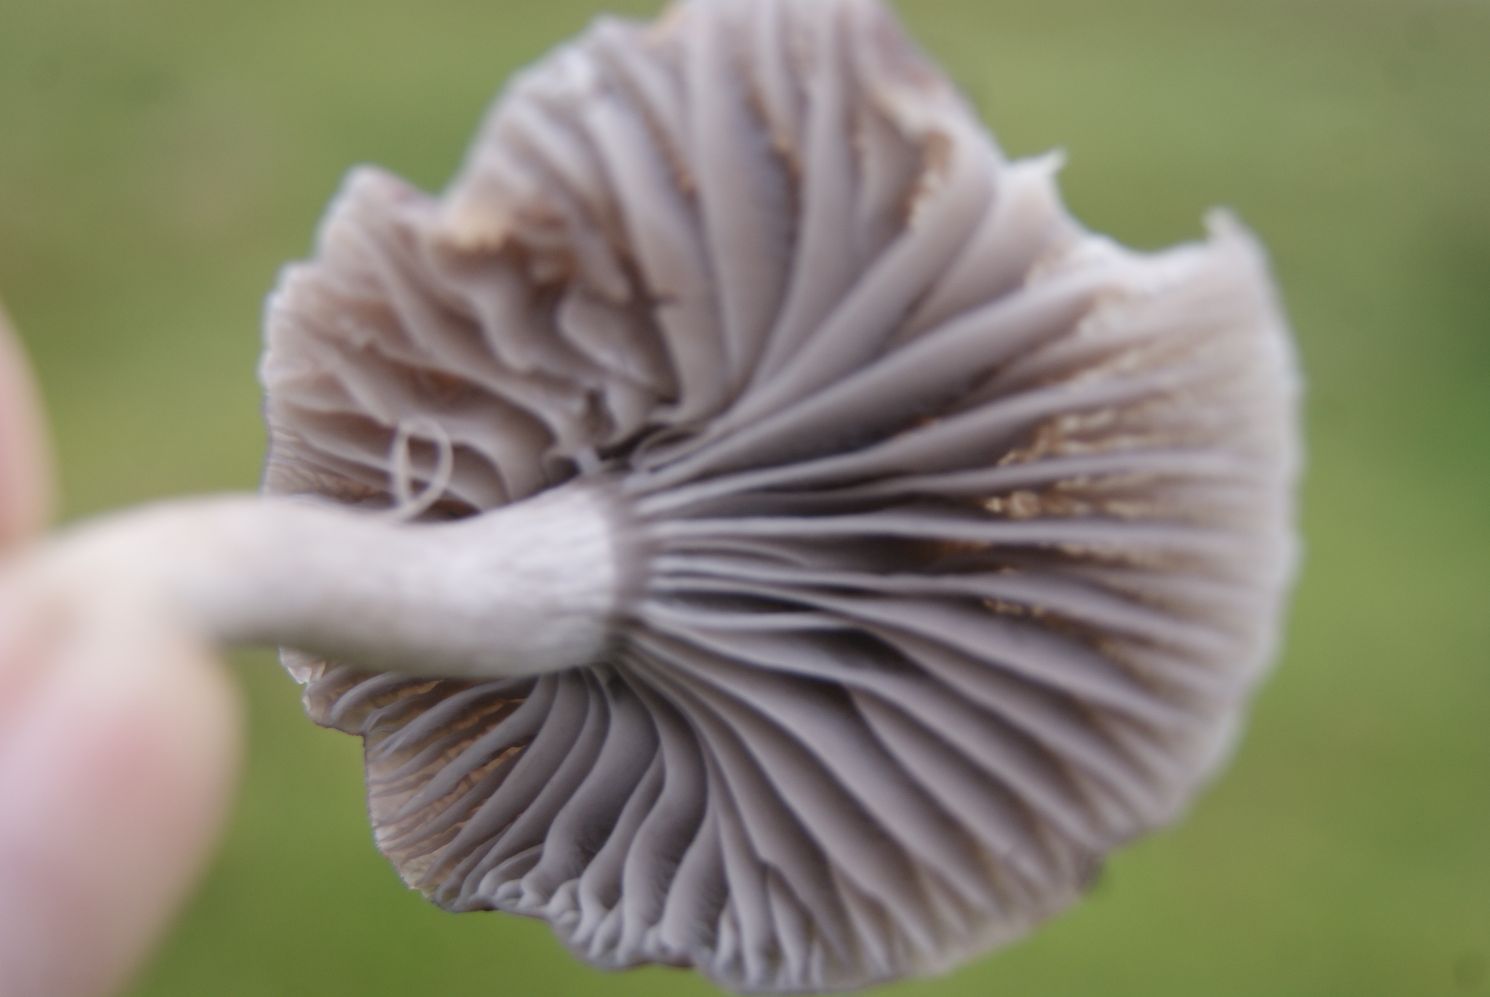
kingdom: Fungi
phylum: Basidiomycota
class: Agaricomycetes
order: Agaricales
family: Hygrophoraceae
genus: Cuphophyllus
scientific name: Cuphophyllus flavipes
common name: gulfodet vokshat
